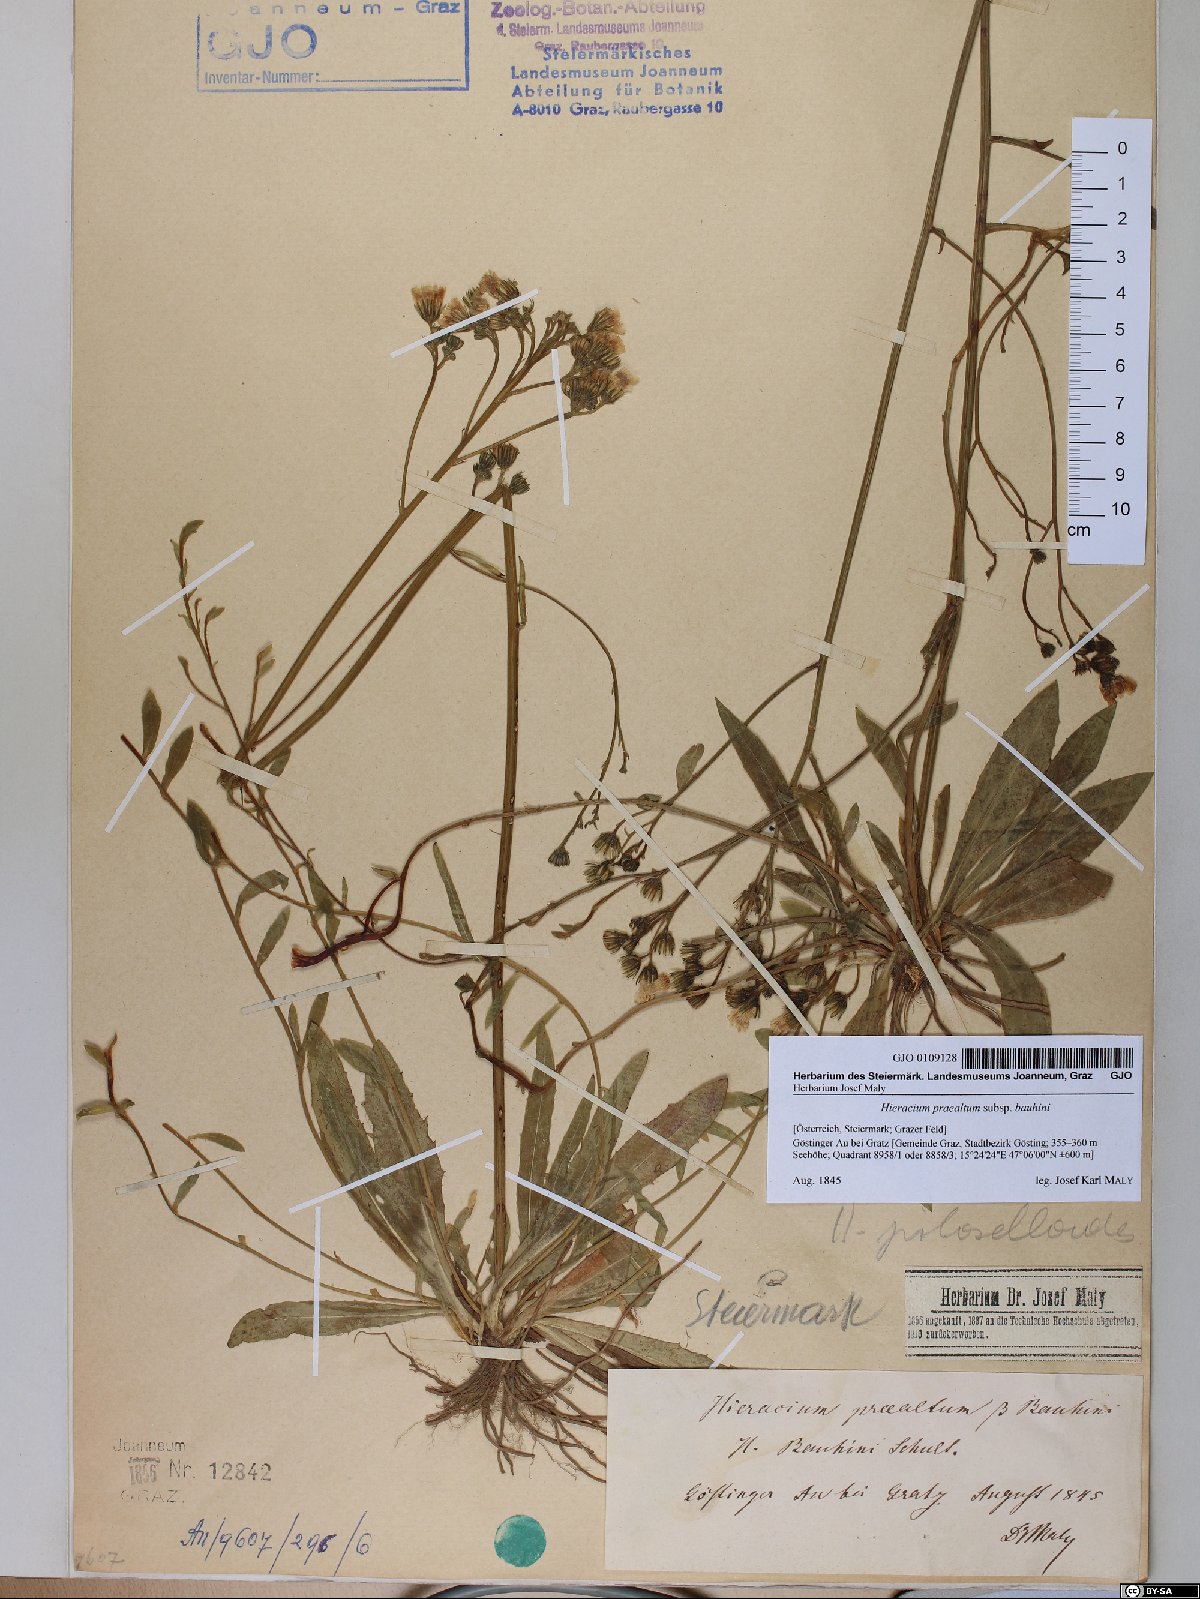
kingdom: Plantae
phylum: Tracheophyta
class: Magnoliopsida
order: Asterales
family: Asteraceae
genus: Pilosella
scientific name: Pilosella bauhini
